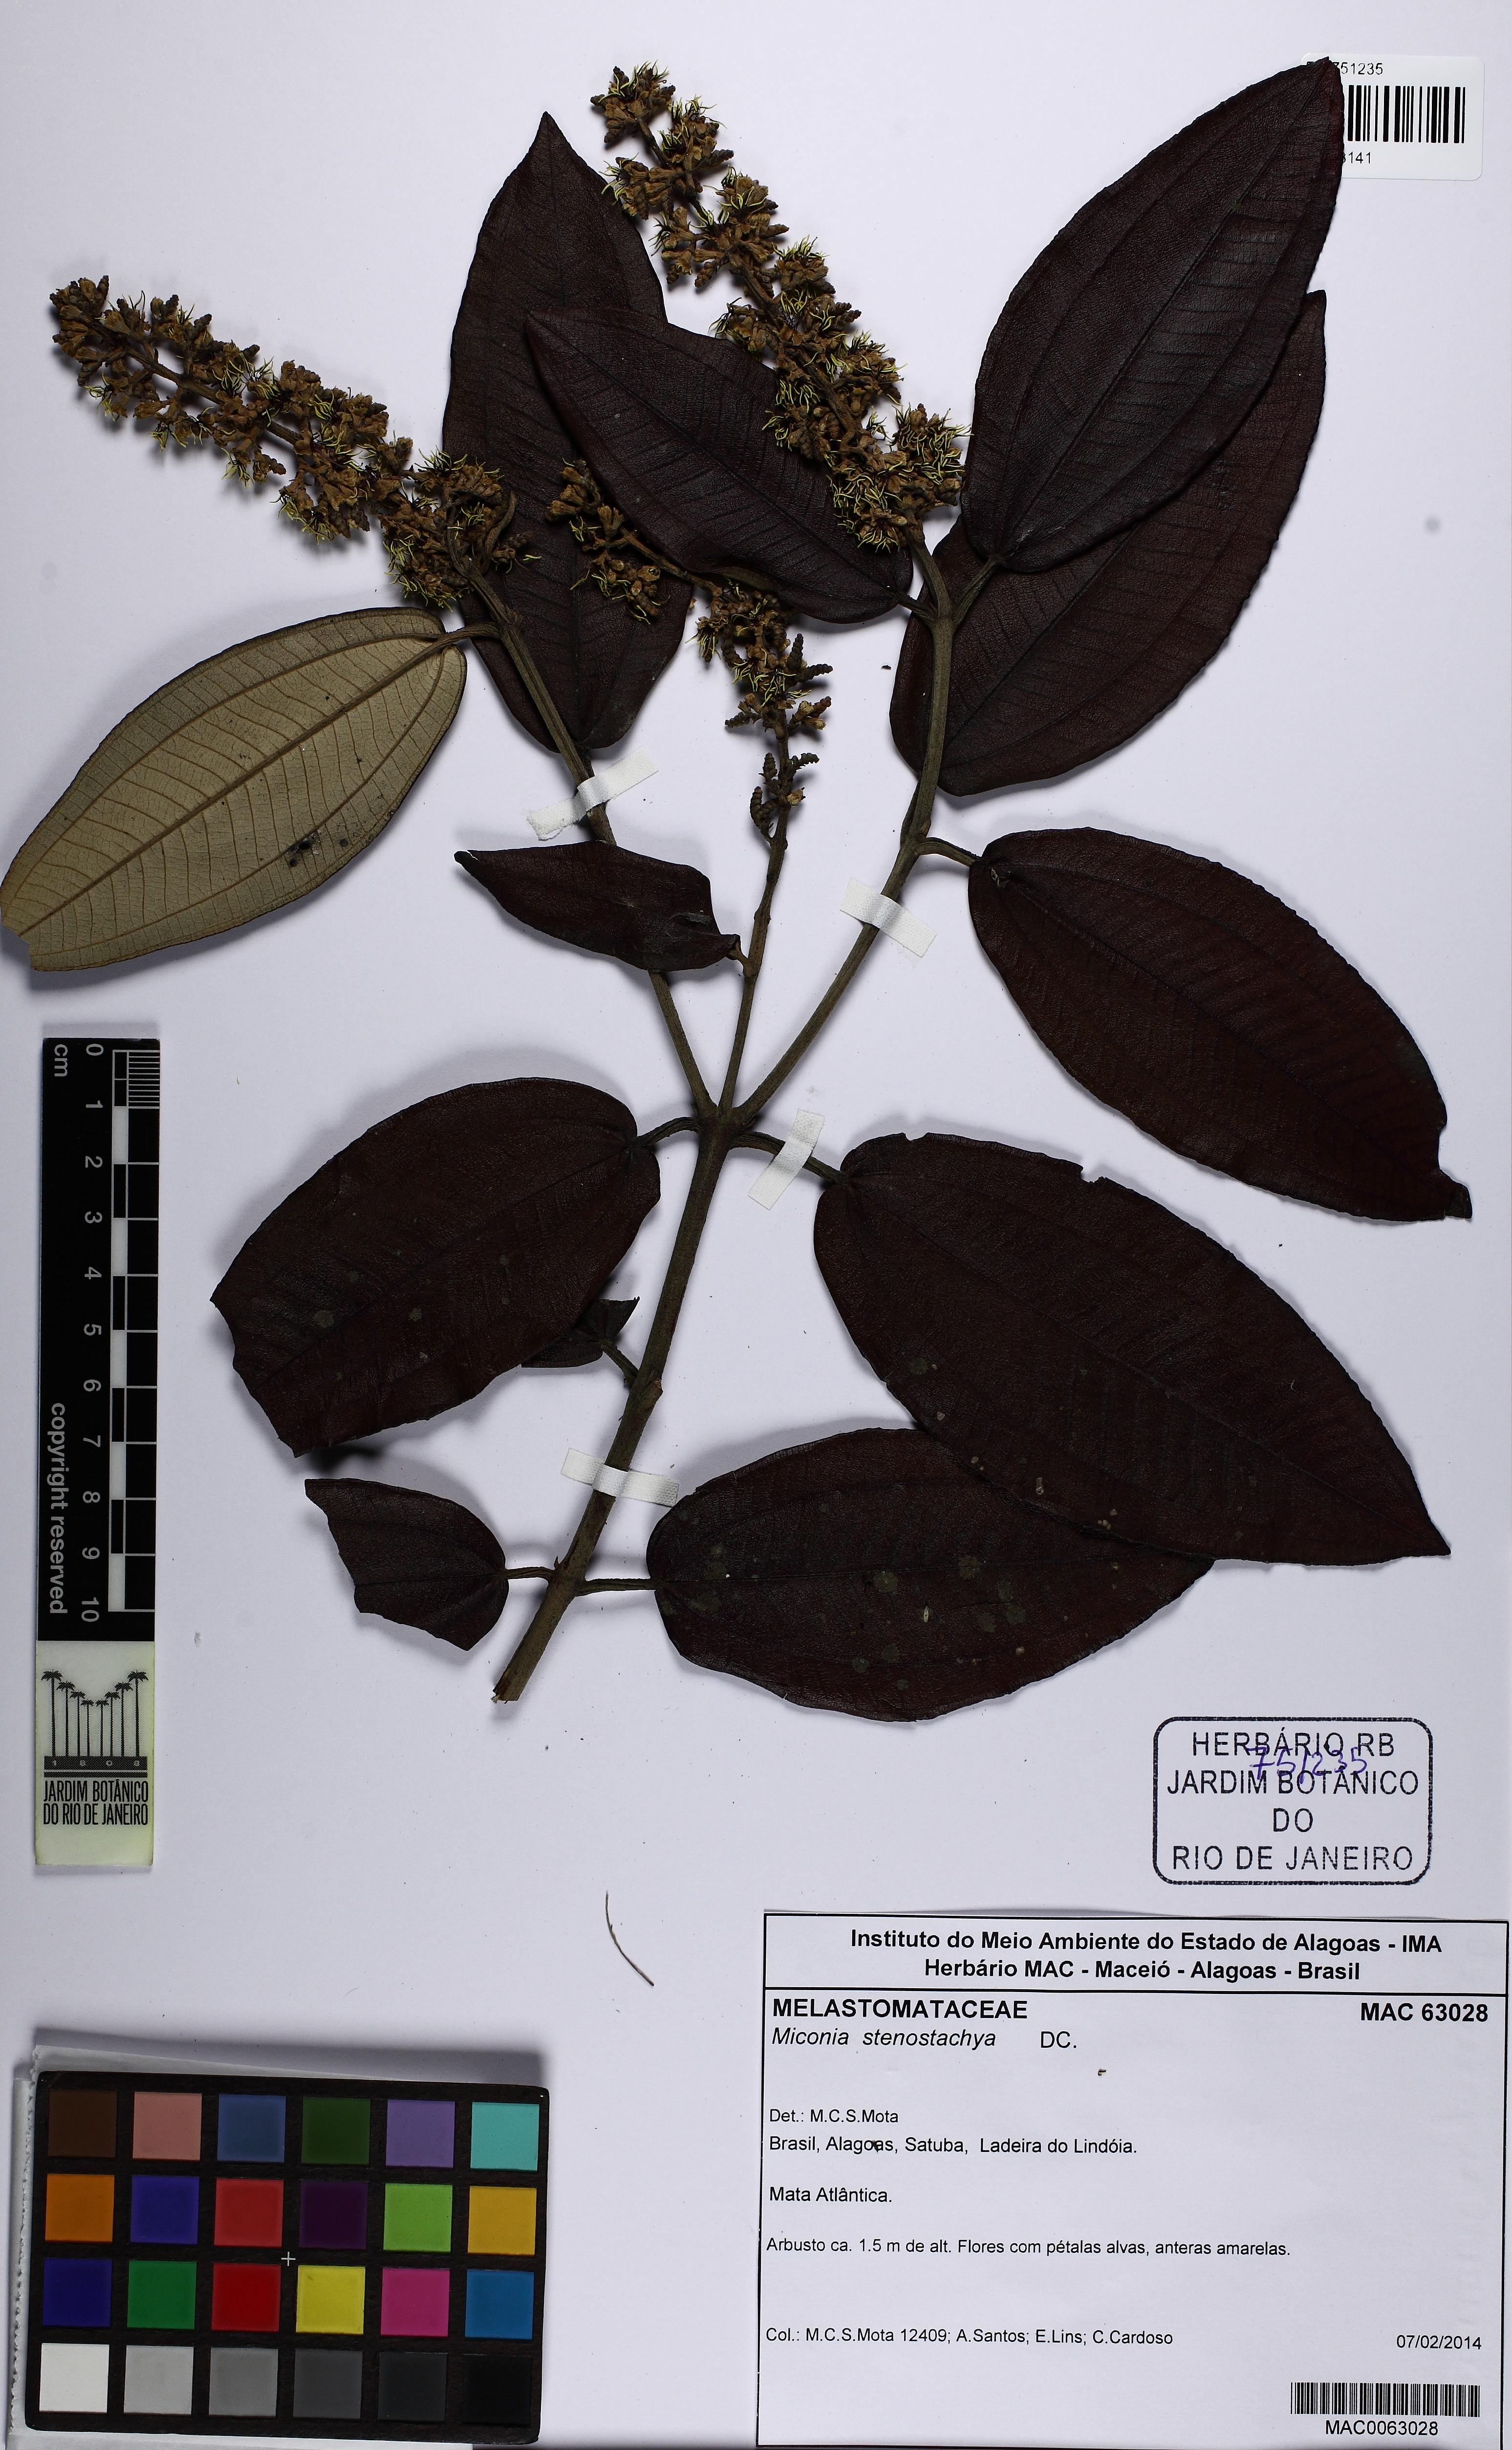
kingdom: Plantae
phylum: Tracheophyta
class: Magnoliopsida
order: Myrtales
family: Melastomataceae
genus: Miconia
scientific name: Miconia stenostachya
